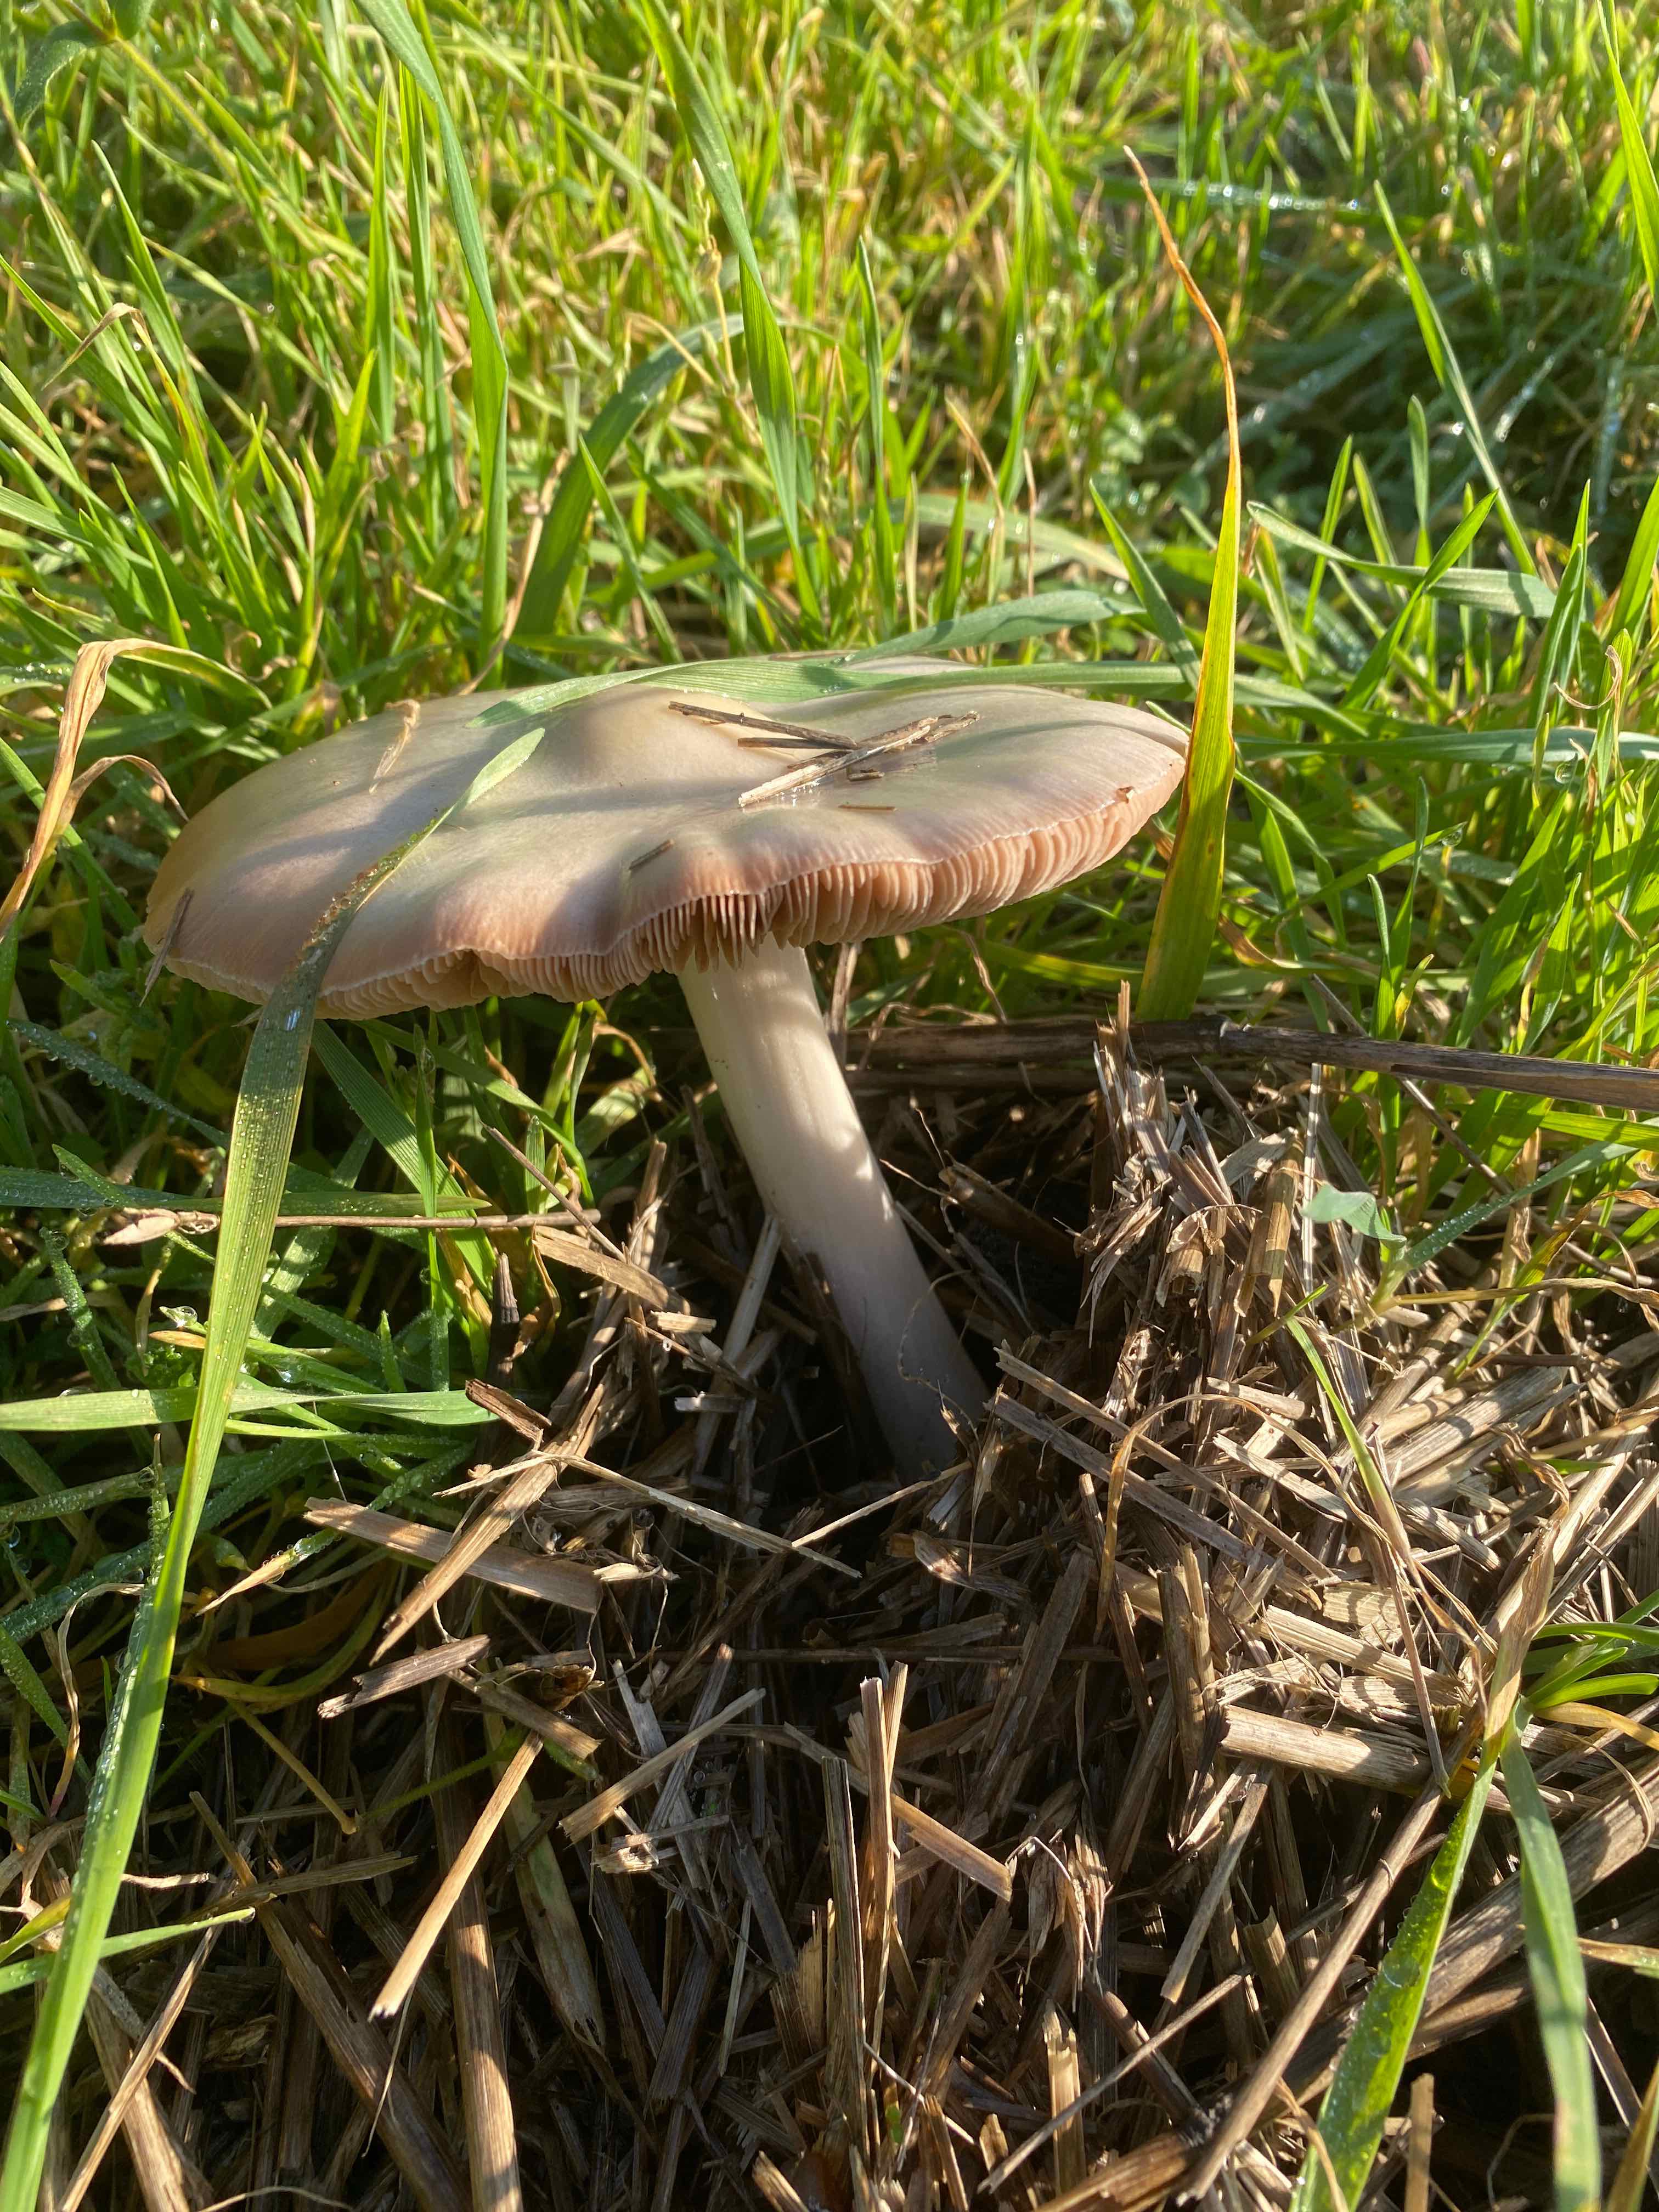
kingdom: Fungi
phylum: Basidiomycota
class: Agaricomycetes
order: Agaricales
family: Pluteaceae
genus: Volvopluteus
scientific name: Volvopluteus gloiocephalus
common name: høj posesvamp
